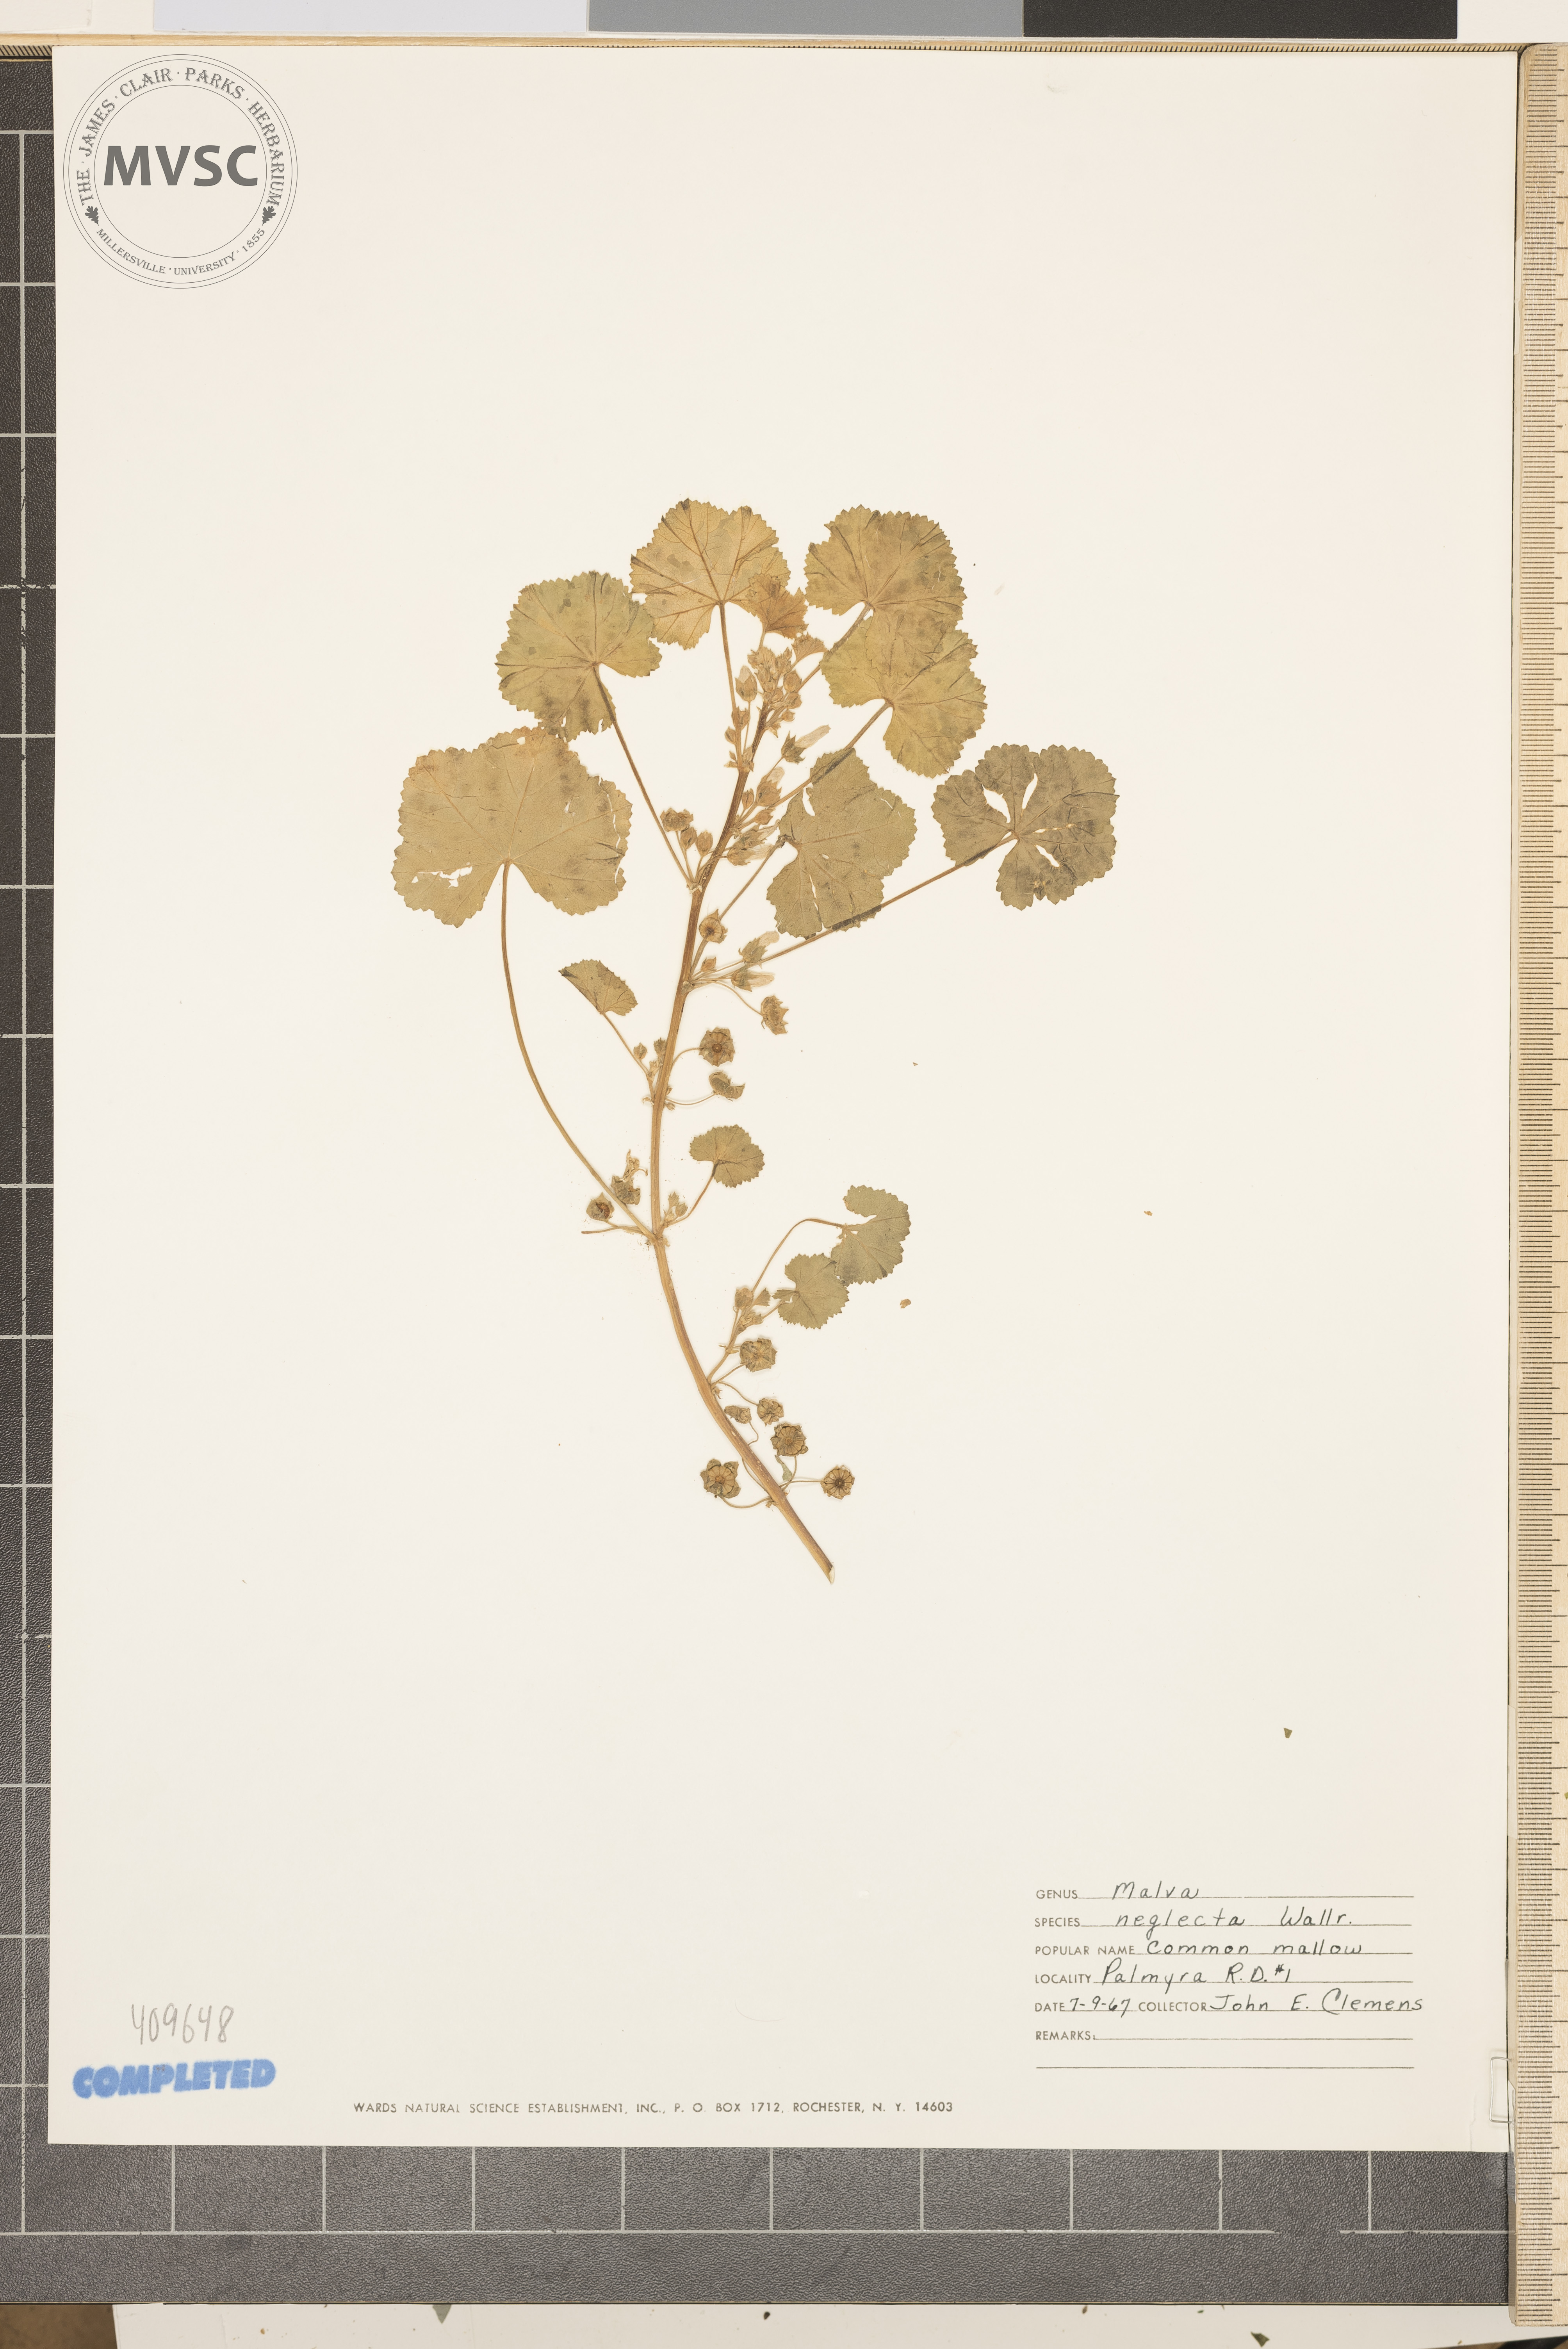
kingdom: Plantae
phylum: Tracheophyta
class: Magnoliopsida
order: Malvales
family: Malvaceae
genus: Malva
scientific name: Malva neglecta
